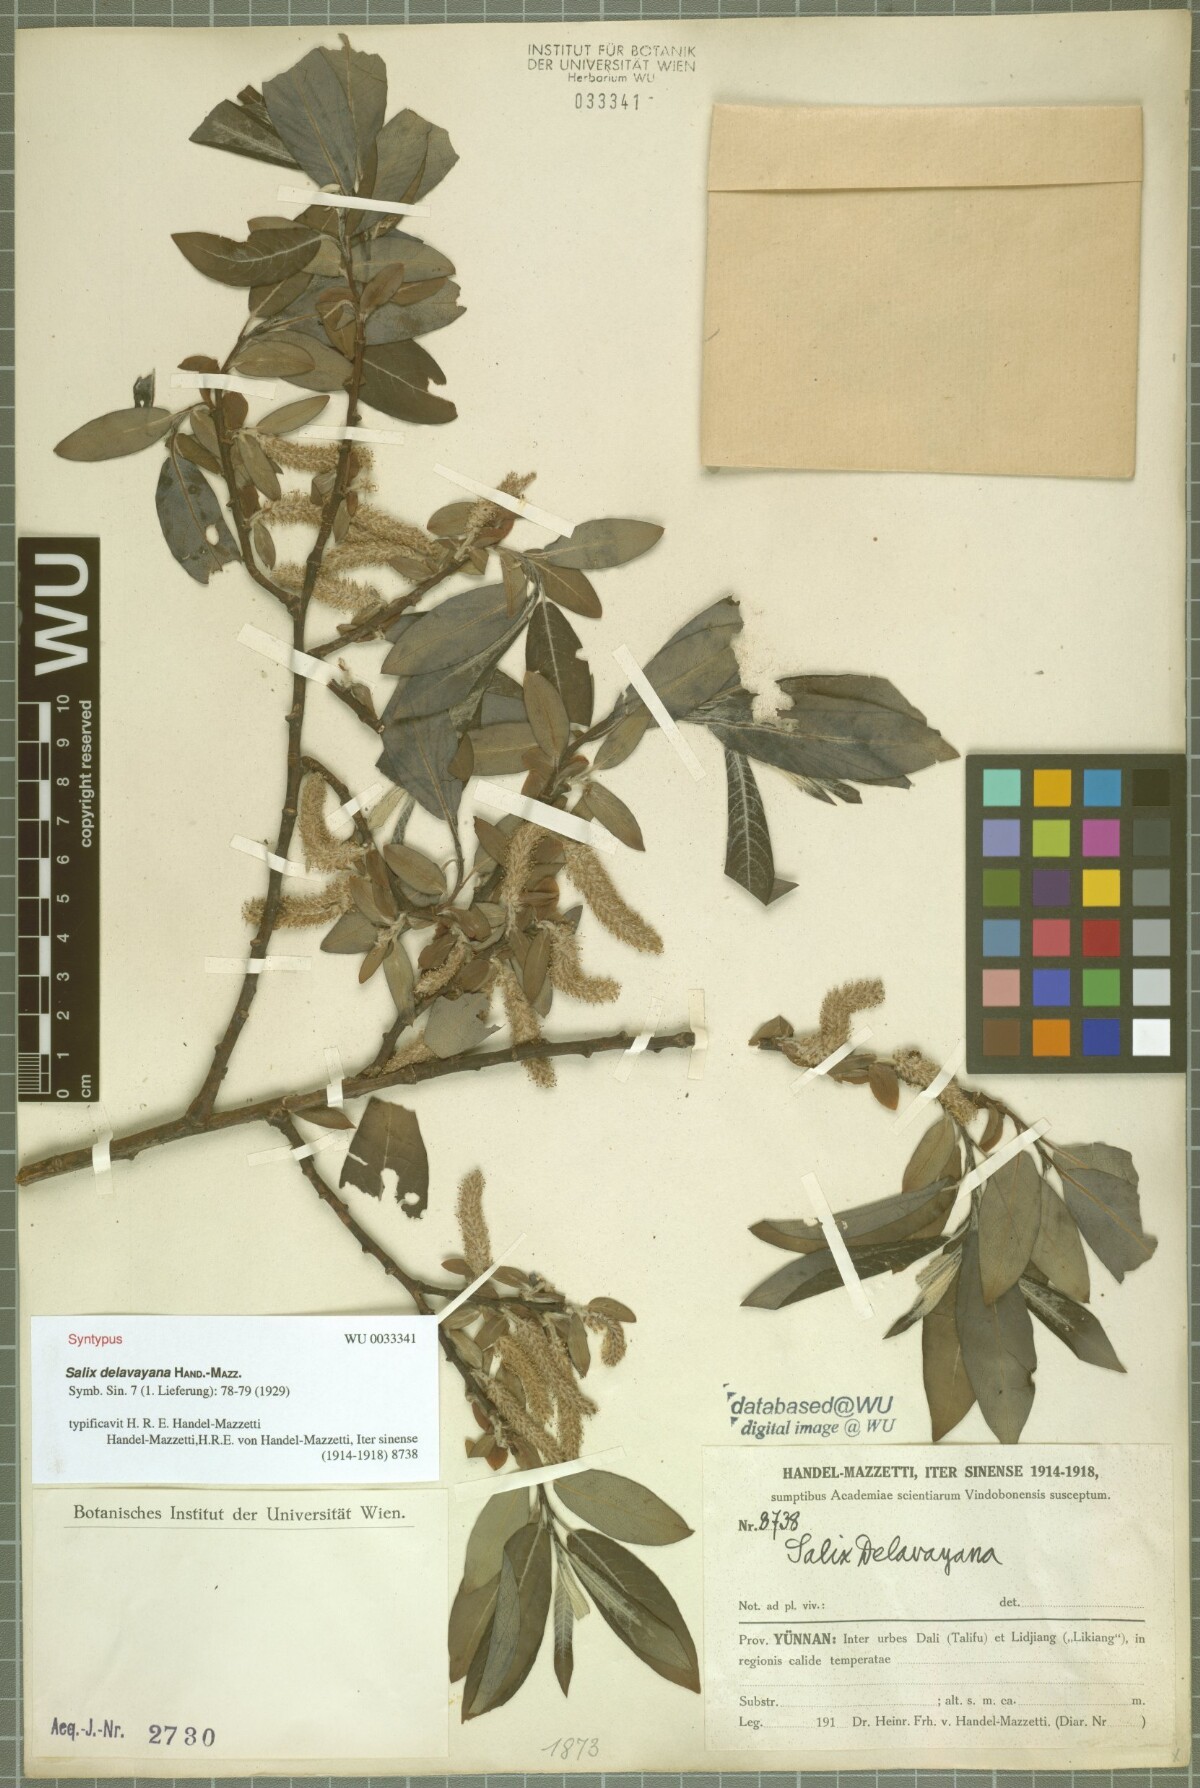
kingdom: Plantae
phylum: Tracheophyta
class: Magnoliopsida
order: Malpighiales
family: Salicaceae
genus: Salix
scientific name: Salix delavayana
